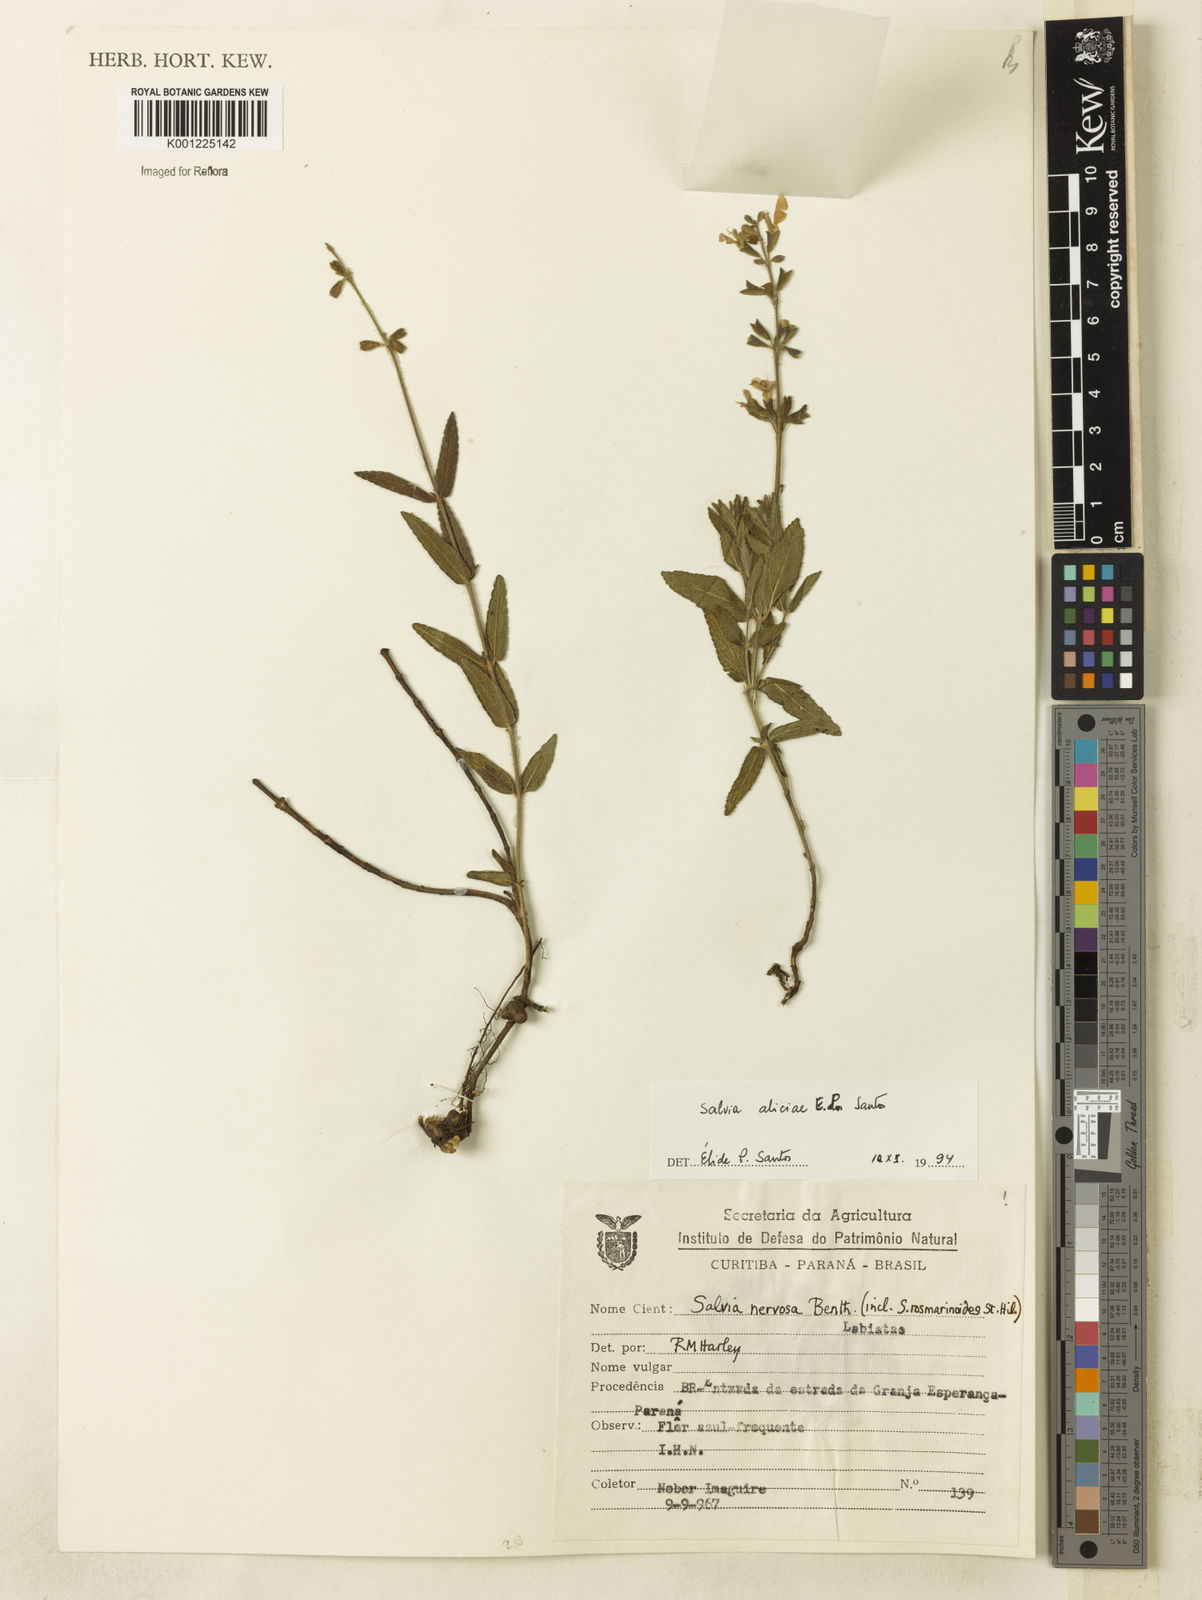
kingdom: Plantae
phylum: Tracheophyta
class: Magnoliopsida
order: Lamiales
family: Lamiaceae
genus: Salvia
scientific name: Salvia aliciae
